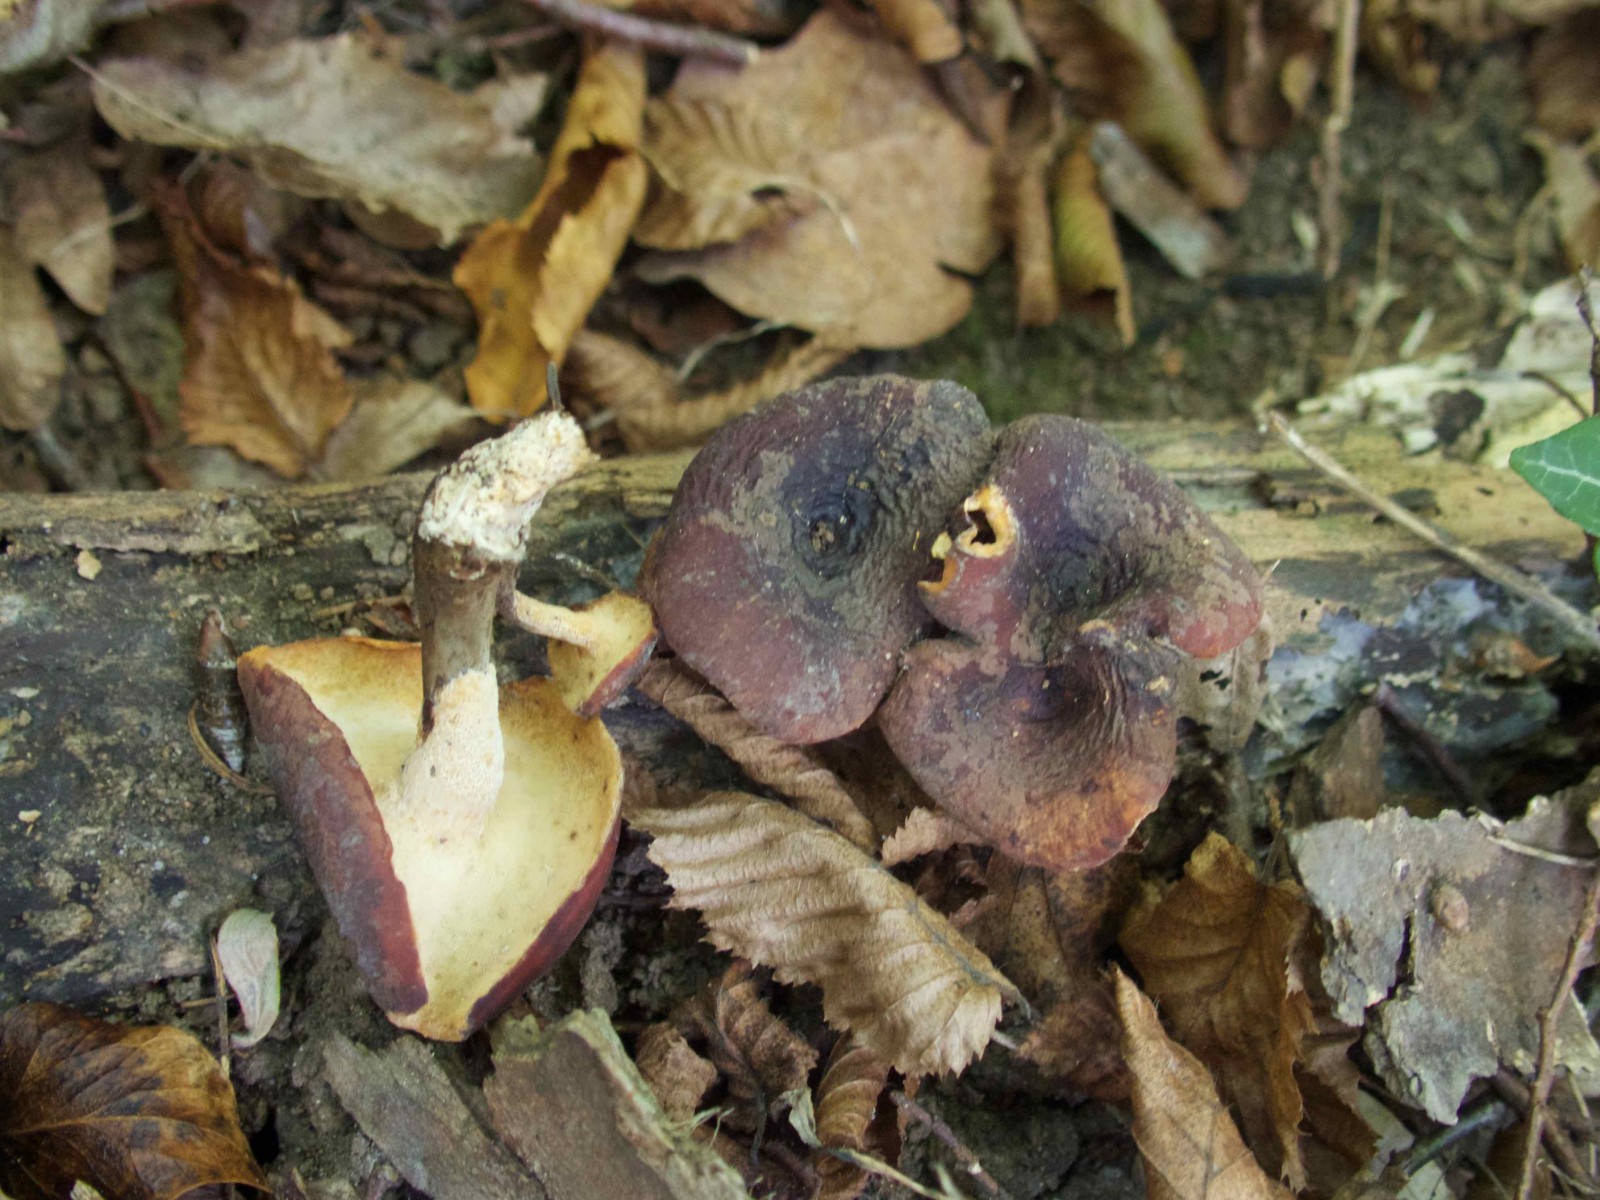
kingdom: Fungi
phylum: Basidiomycota
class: Agaricomycetes
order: Polyporales
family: Polyporaceae
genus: Picipes
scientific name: Picipes badius
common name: kastaniebrun stilkporesvamp
